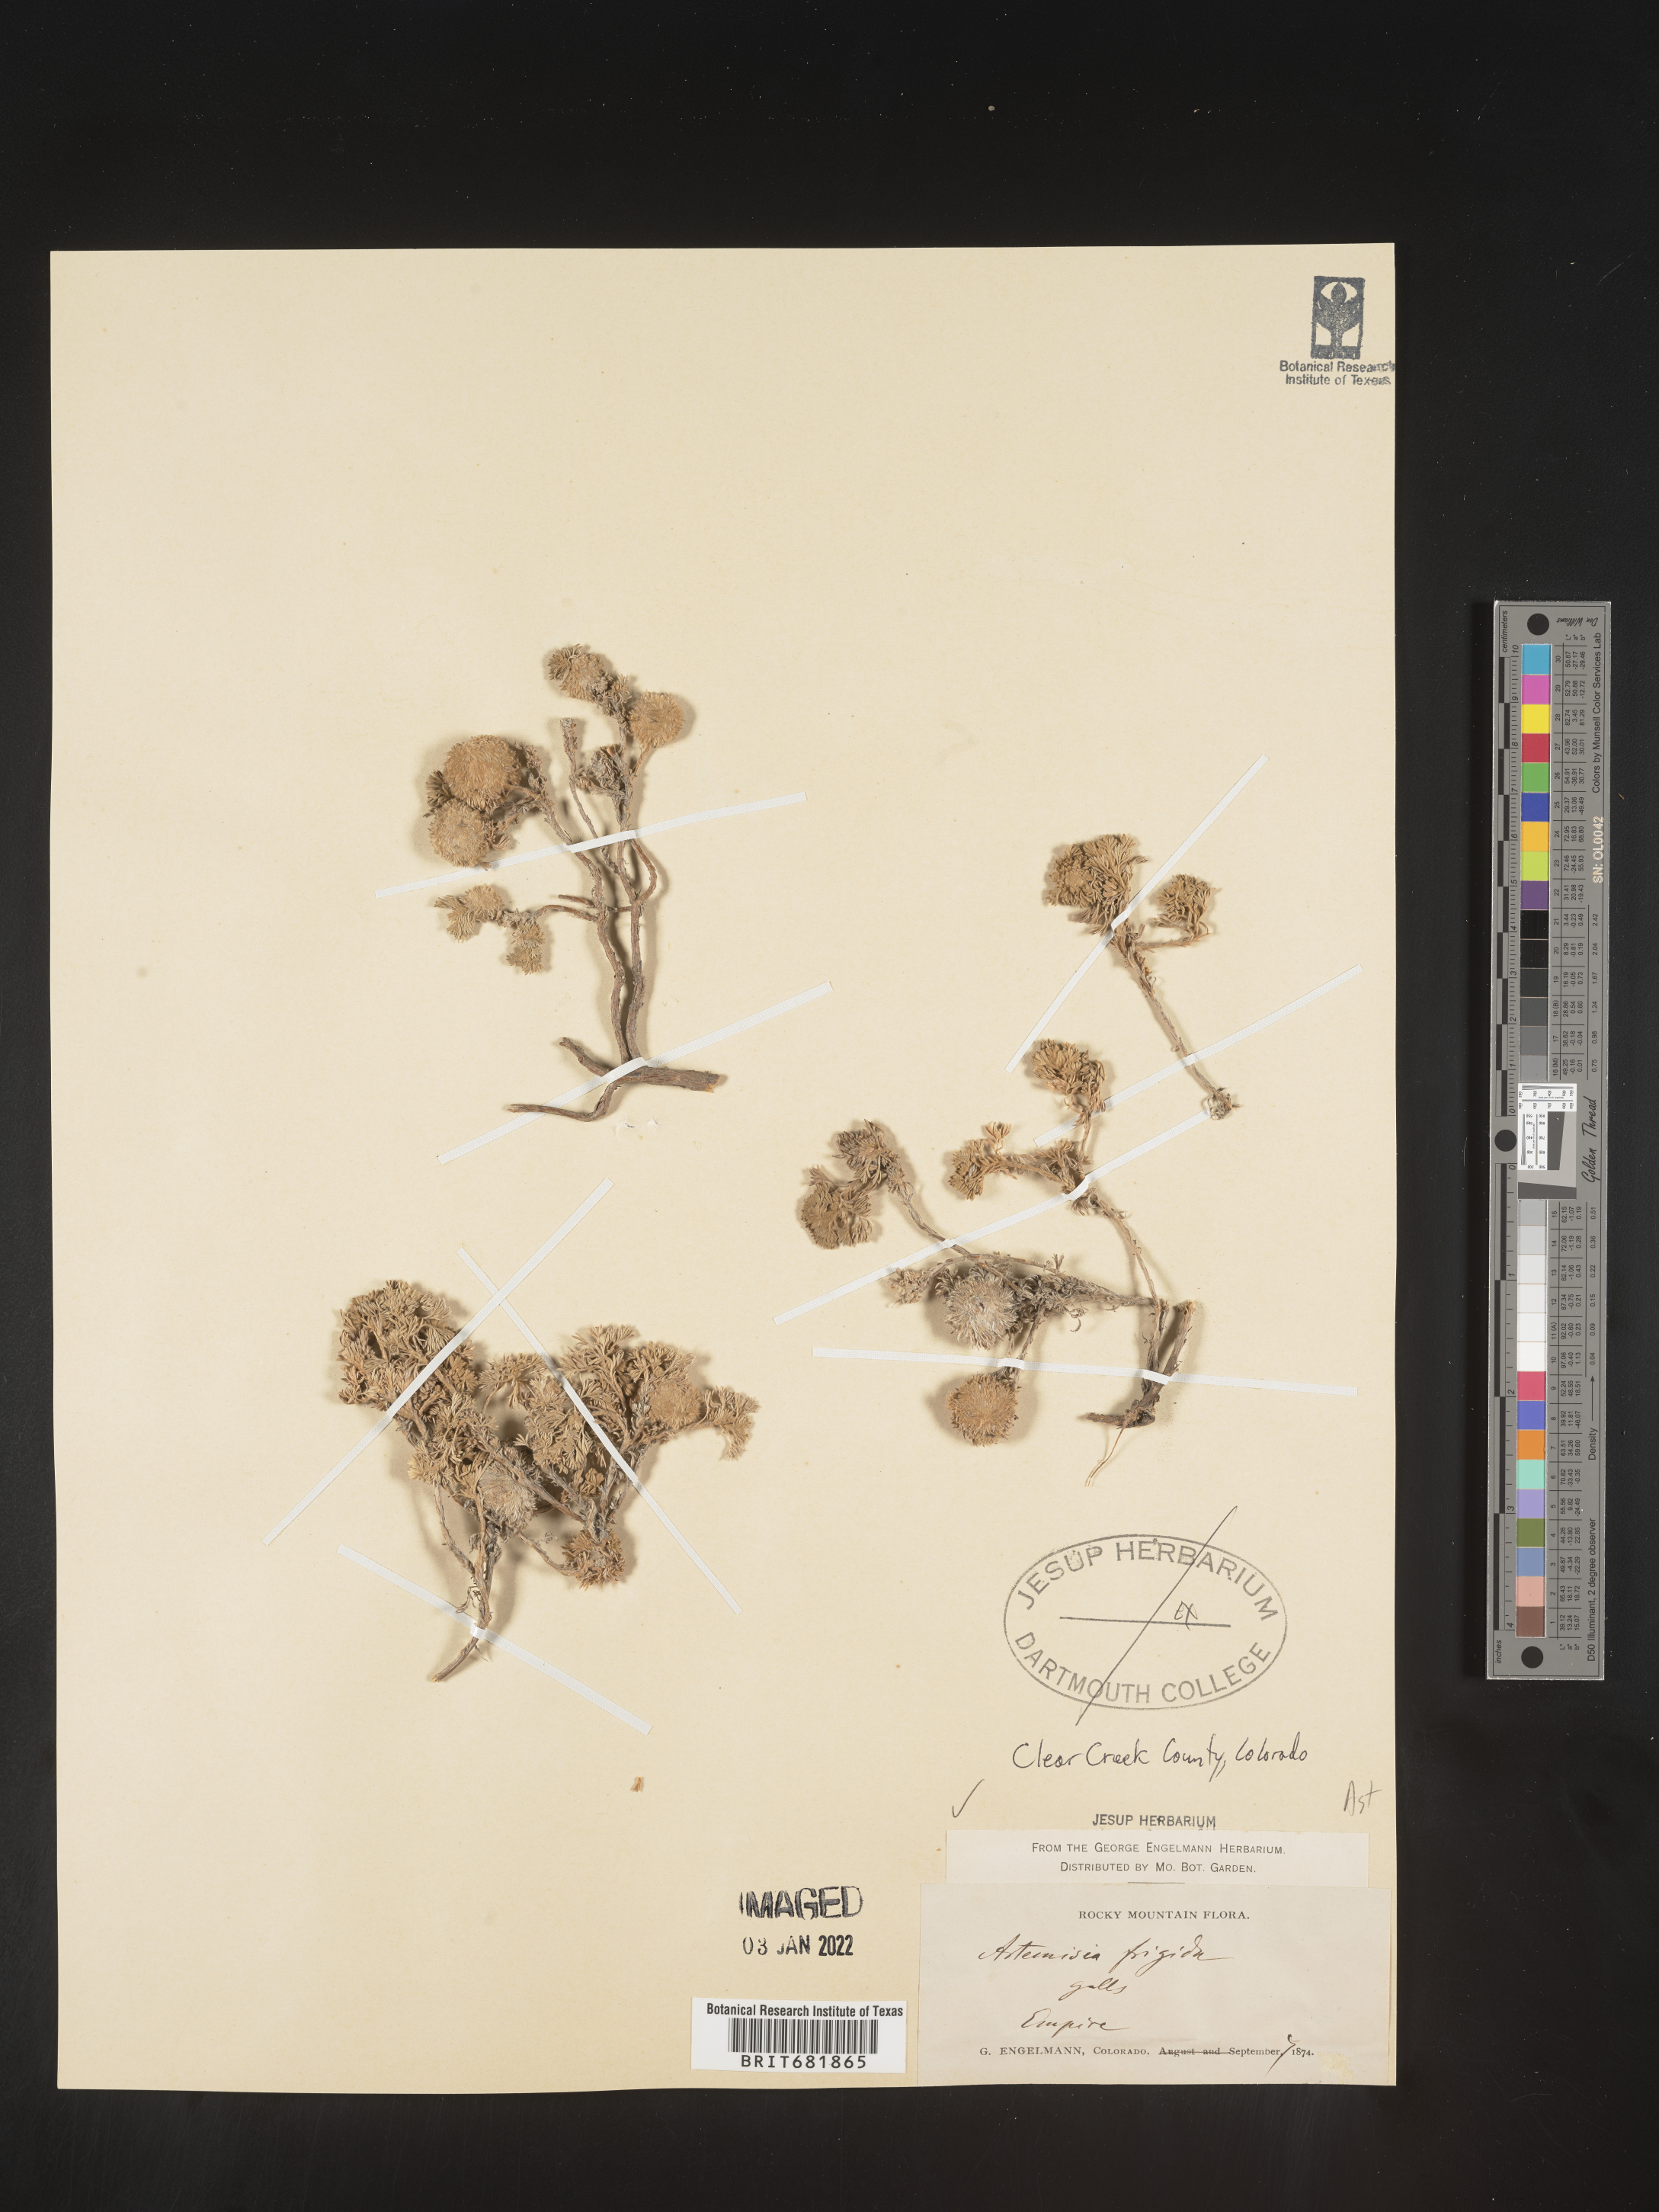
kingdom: Plantae
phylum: Tracheophyta
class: Magnoliopsida
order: Asterales
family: Asteraceae
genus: Artemisia
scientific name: Artemisia frigida
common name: Prairie sagewort
